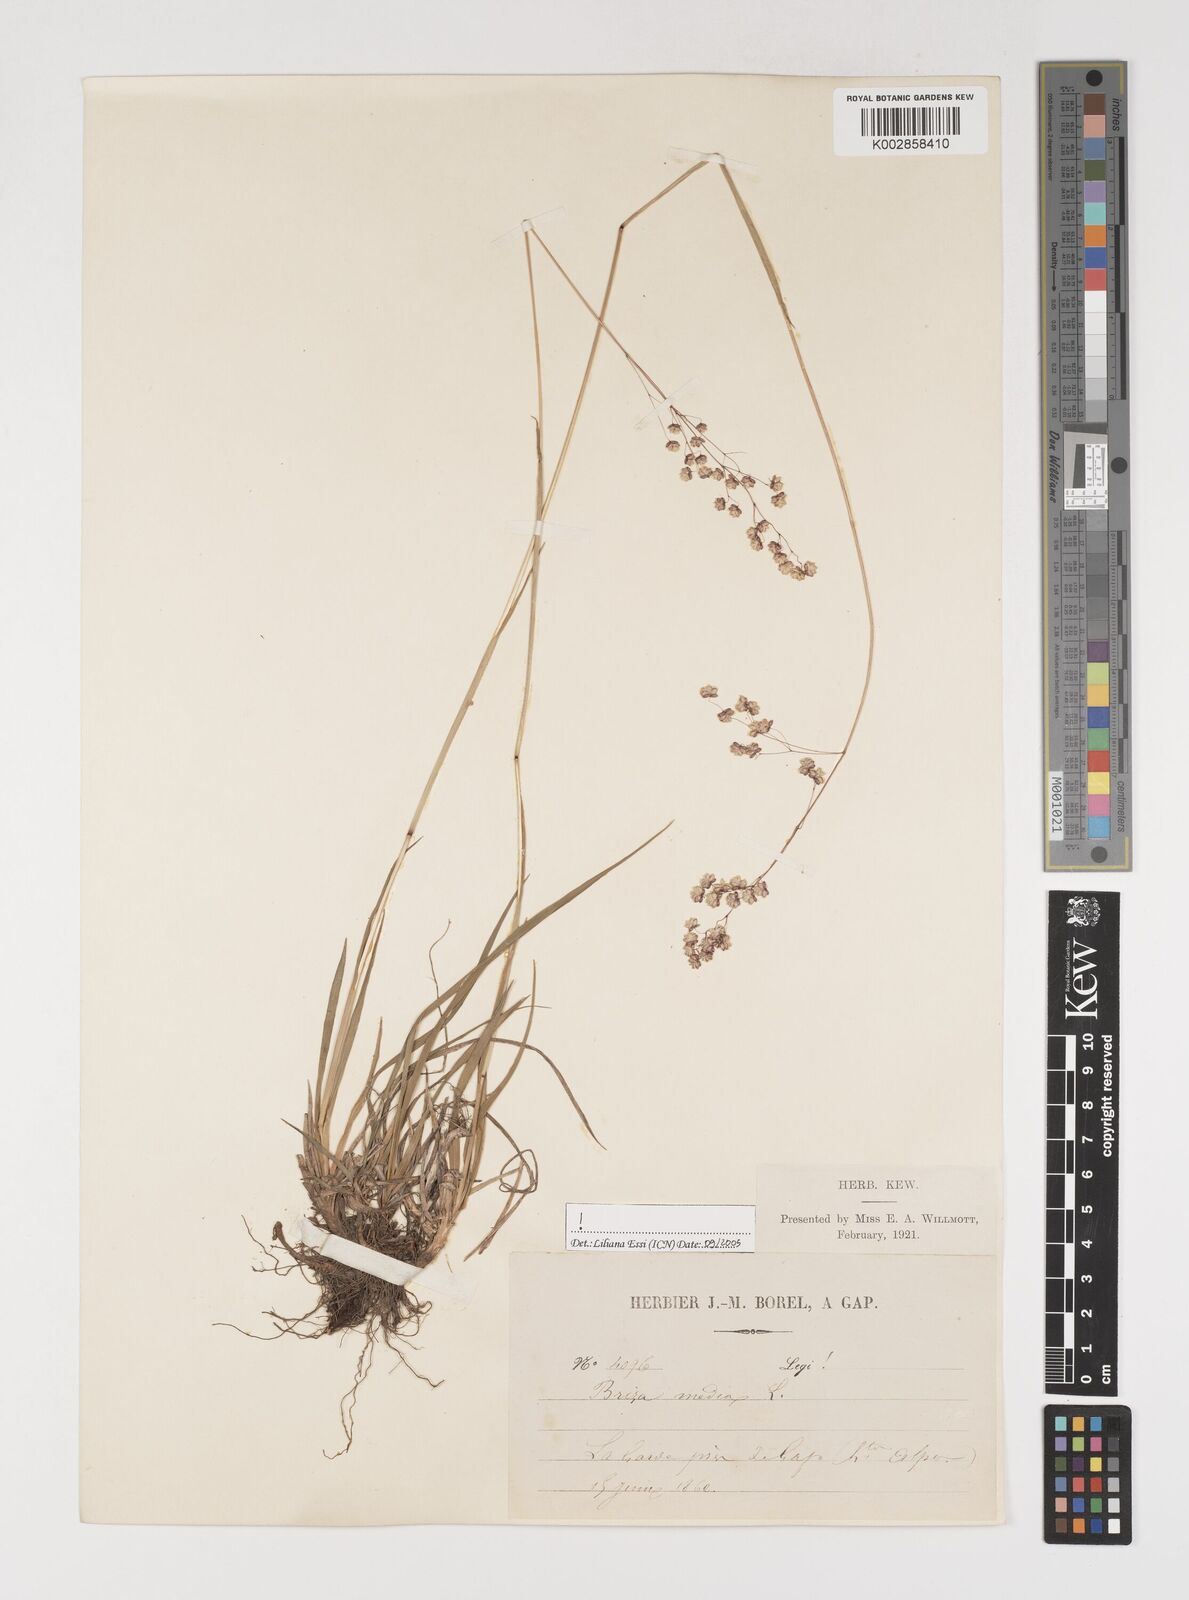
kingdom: Plantae
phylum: Tracheophyta
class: Liliopsida
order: Poales
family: Poaceae
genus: Briza
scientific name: Briza media
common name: Quaking grass
